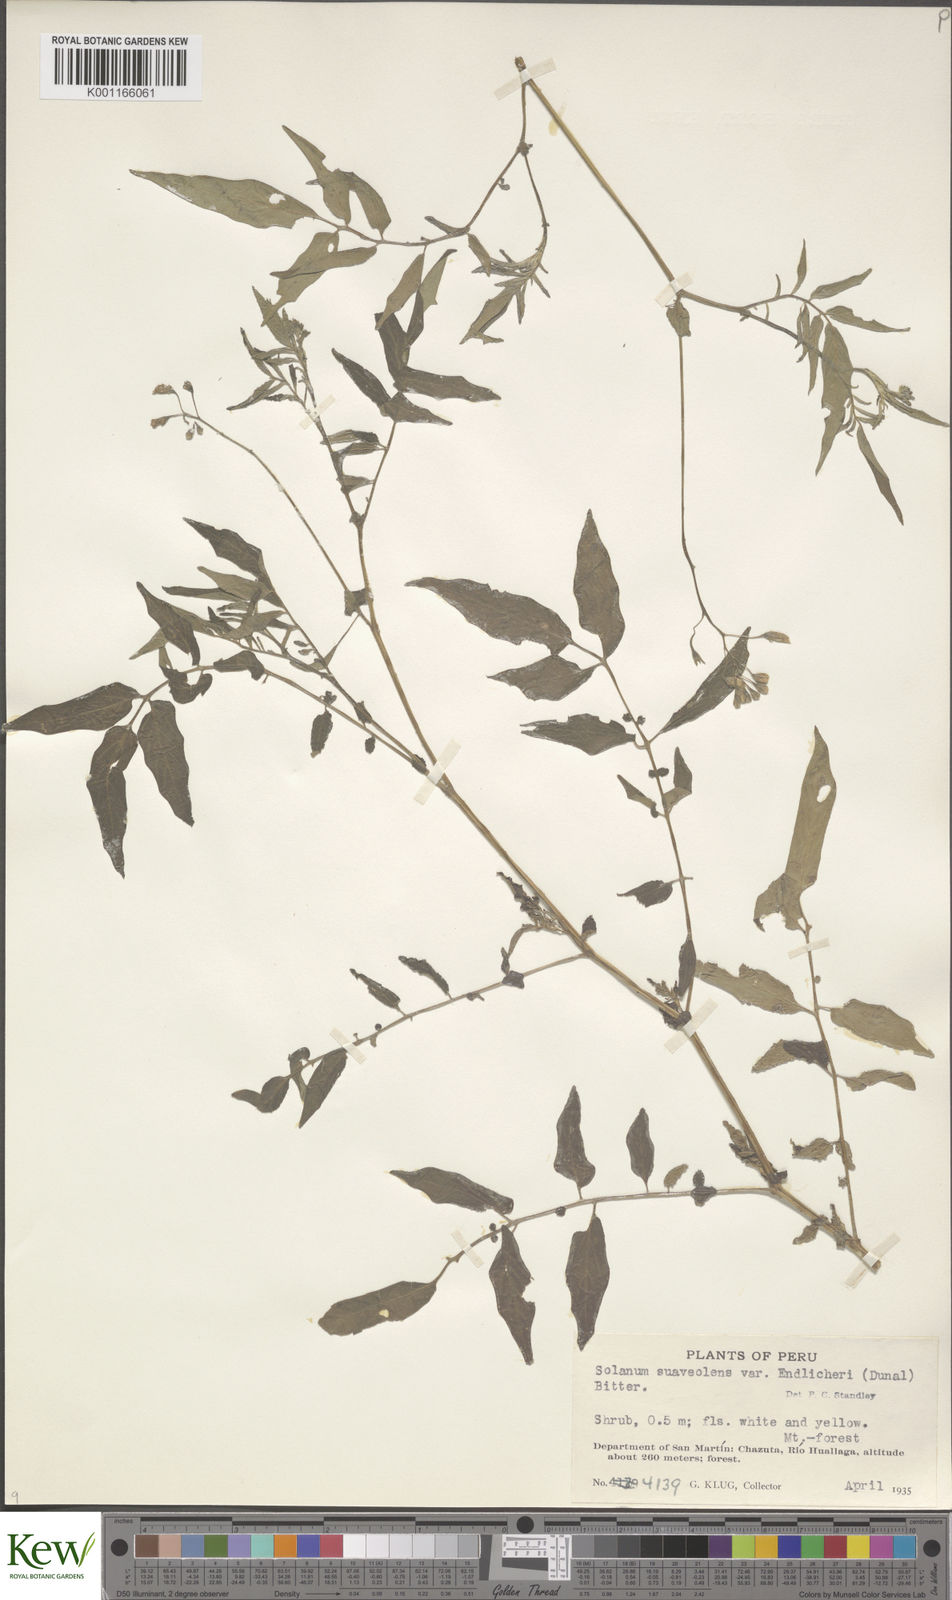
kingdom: Plantae
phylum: Tracheophyta
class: Magnoliopsida
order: Solanales
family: Solanaceae
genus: Solanum
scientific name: Solanum suaveolens
